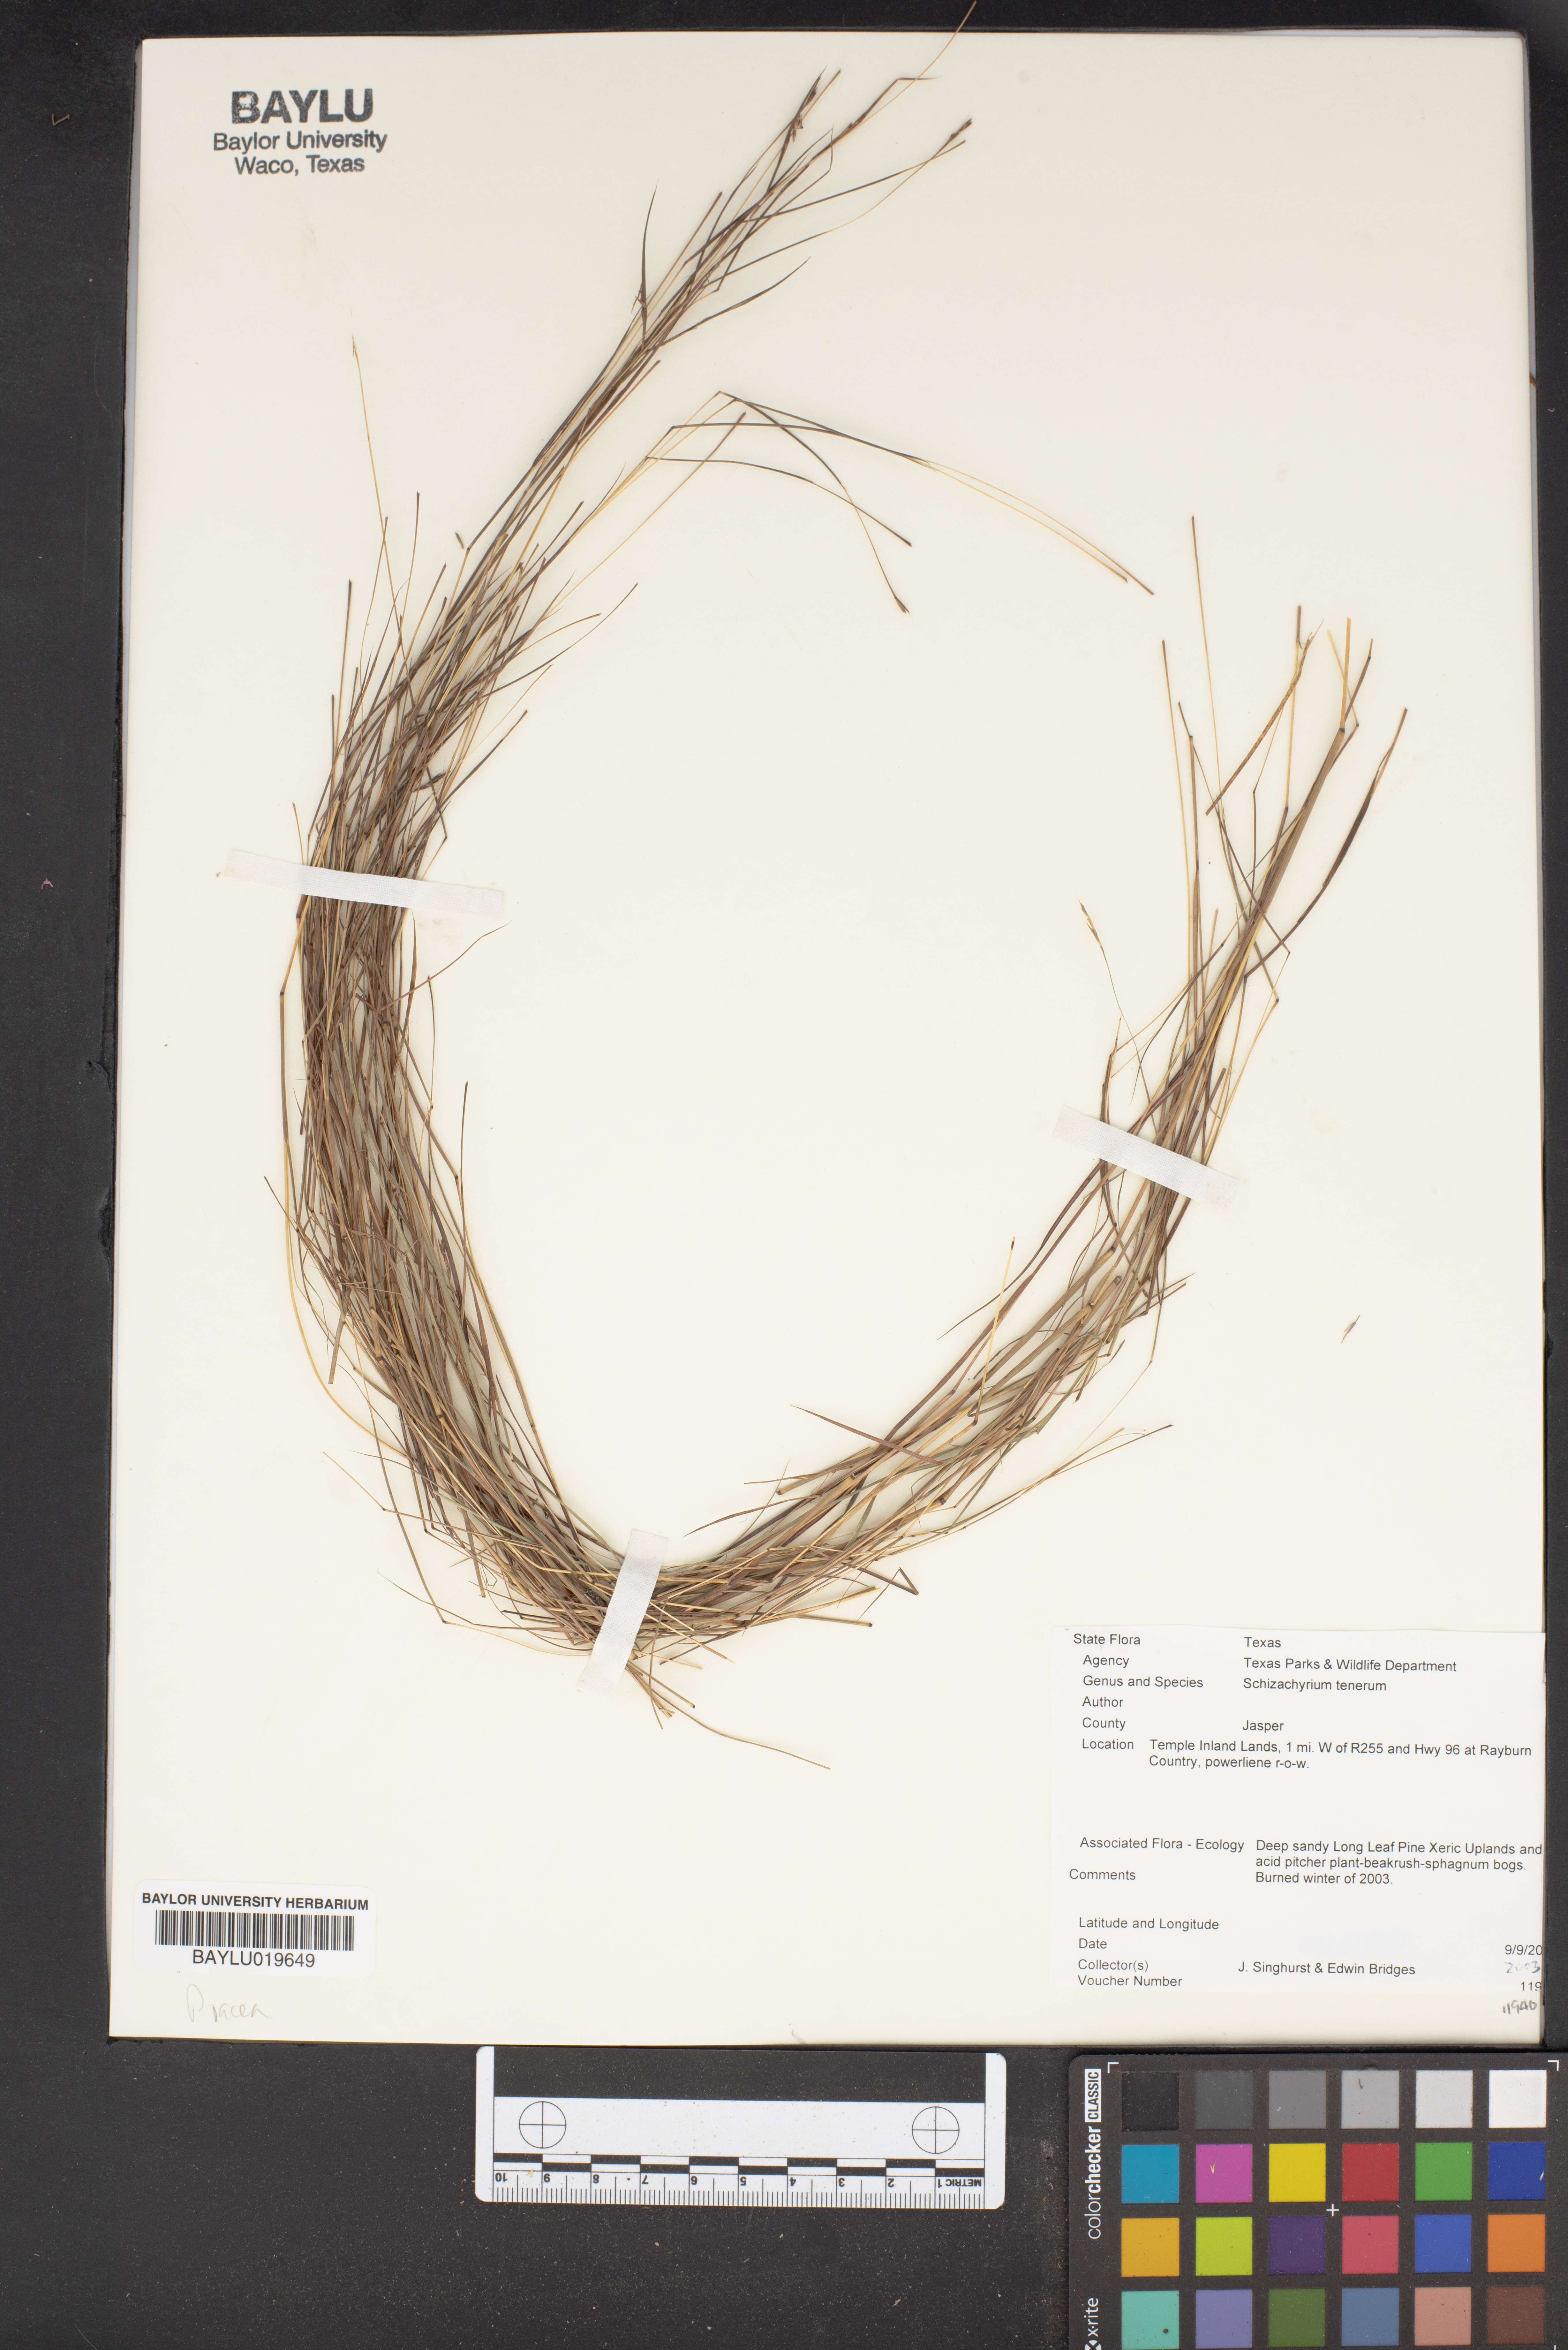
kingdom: Plantae
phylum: Tracheophyta
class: Liliopsida
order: Poales
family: Poaceae
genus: Andropogon
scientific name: Andropogon tener
